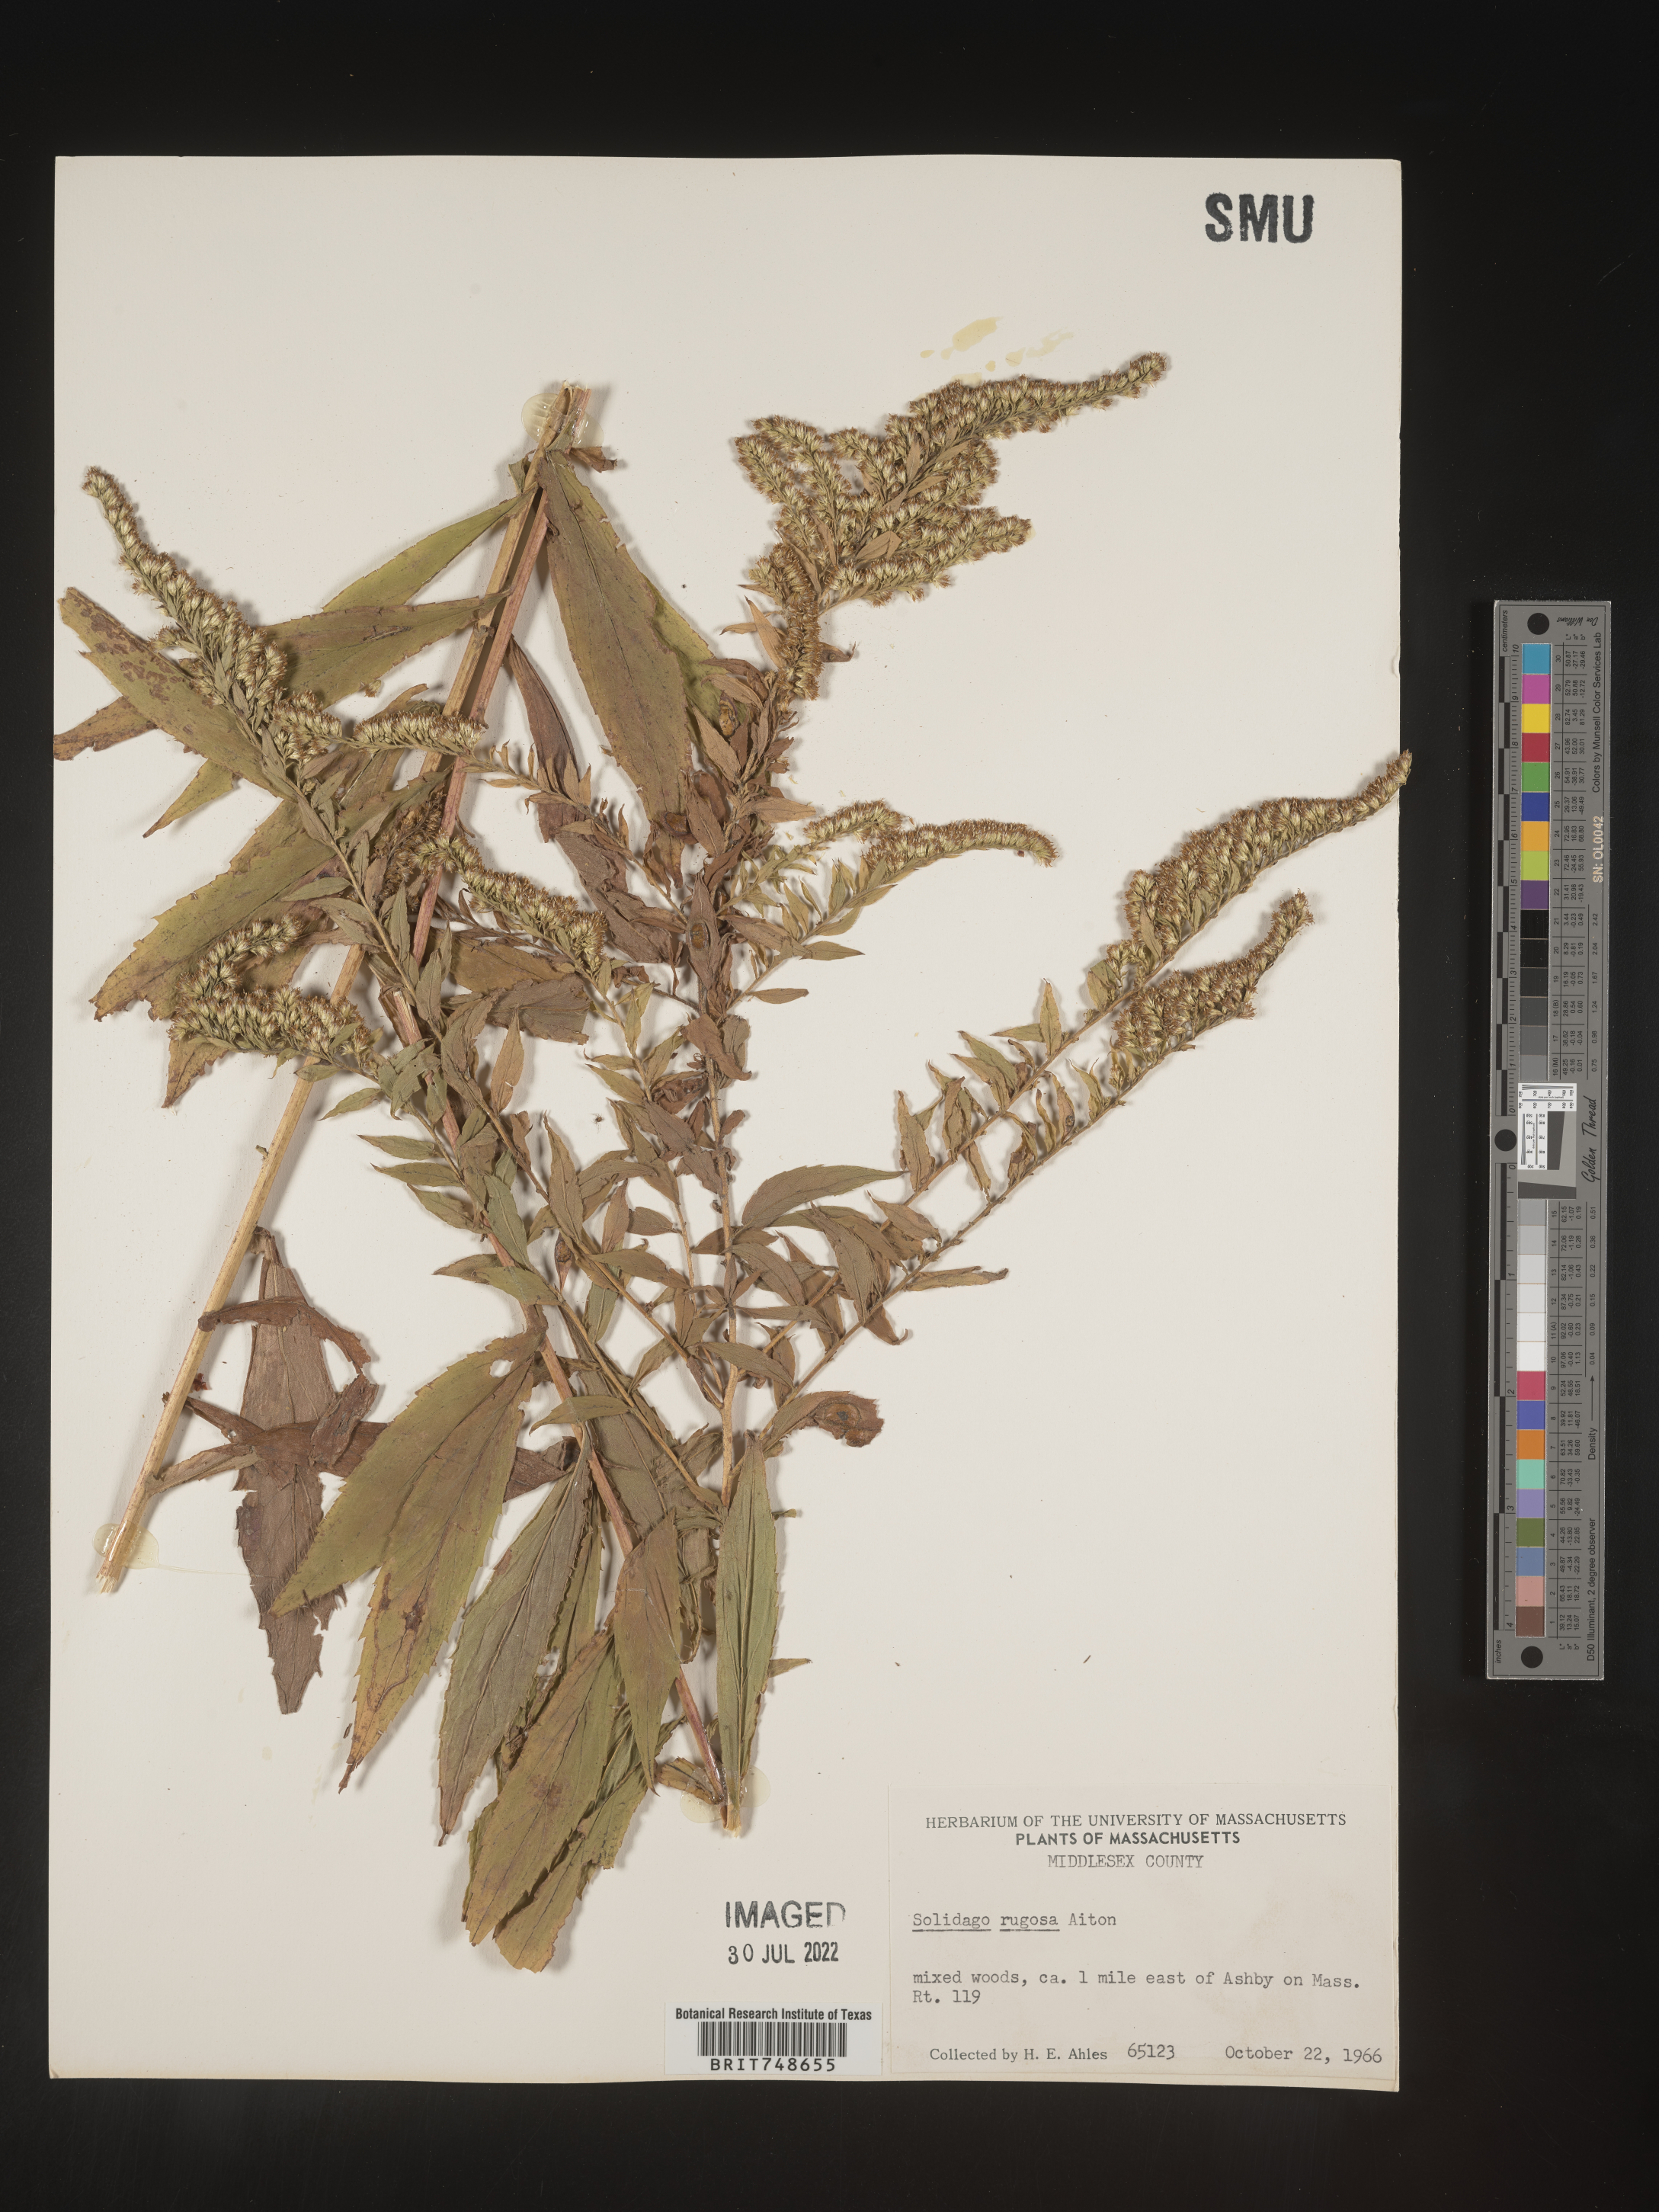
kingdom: Plantae
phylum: Tracheophyta
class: Magnoliopsida
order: Asterales
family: Asteraceae
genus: Solidago
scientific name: Solidago rugosa
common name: Rough-stemmed goldenrod
